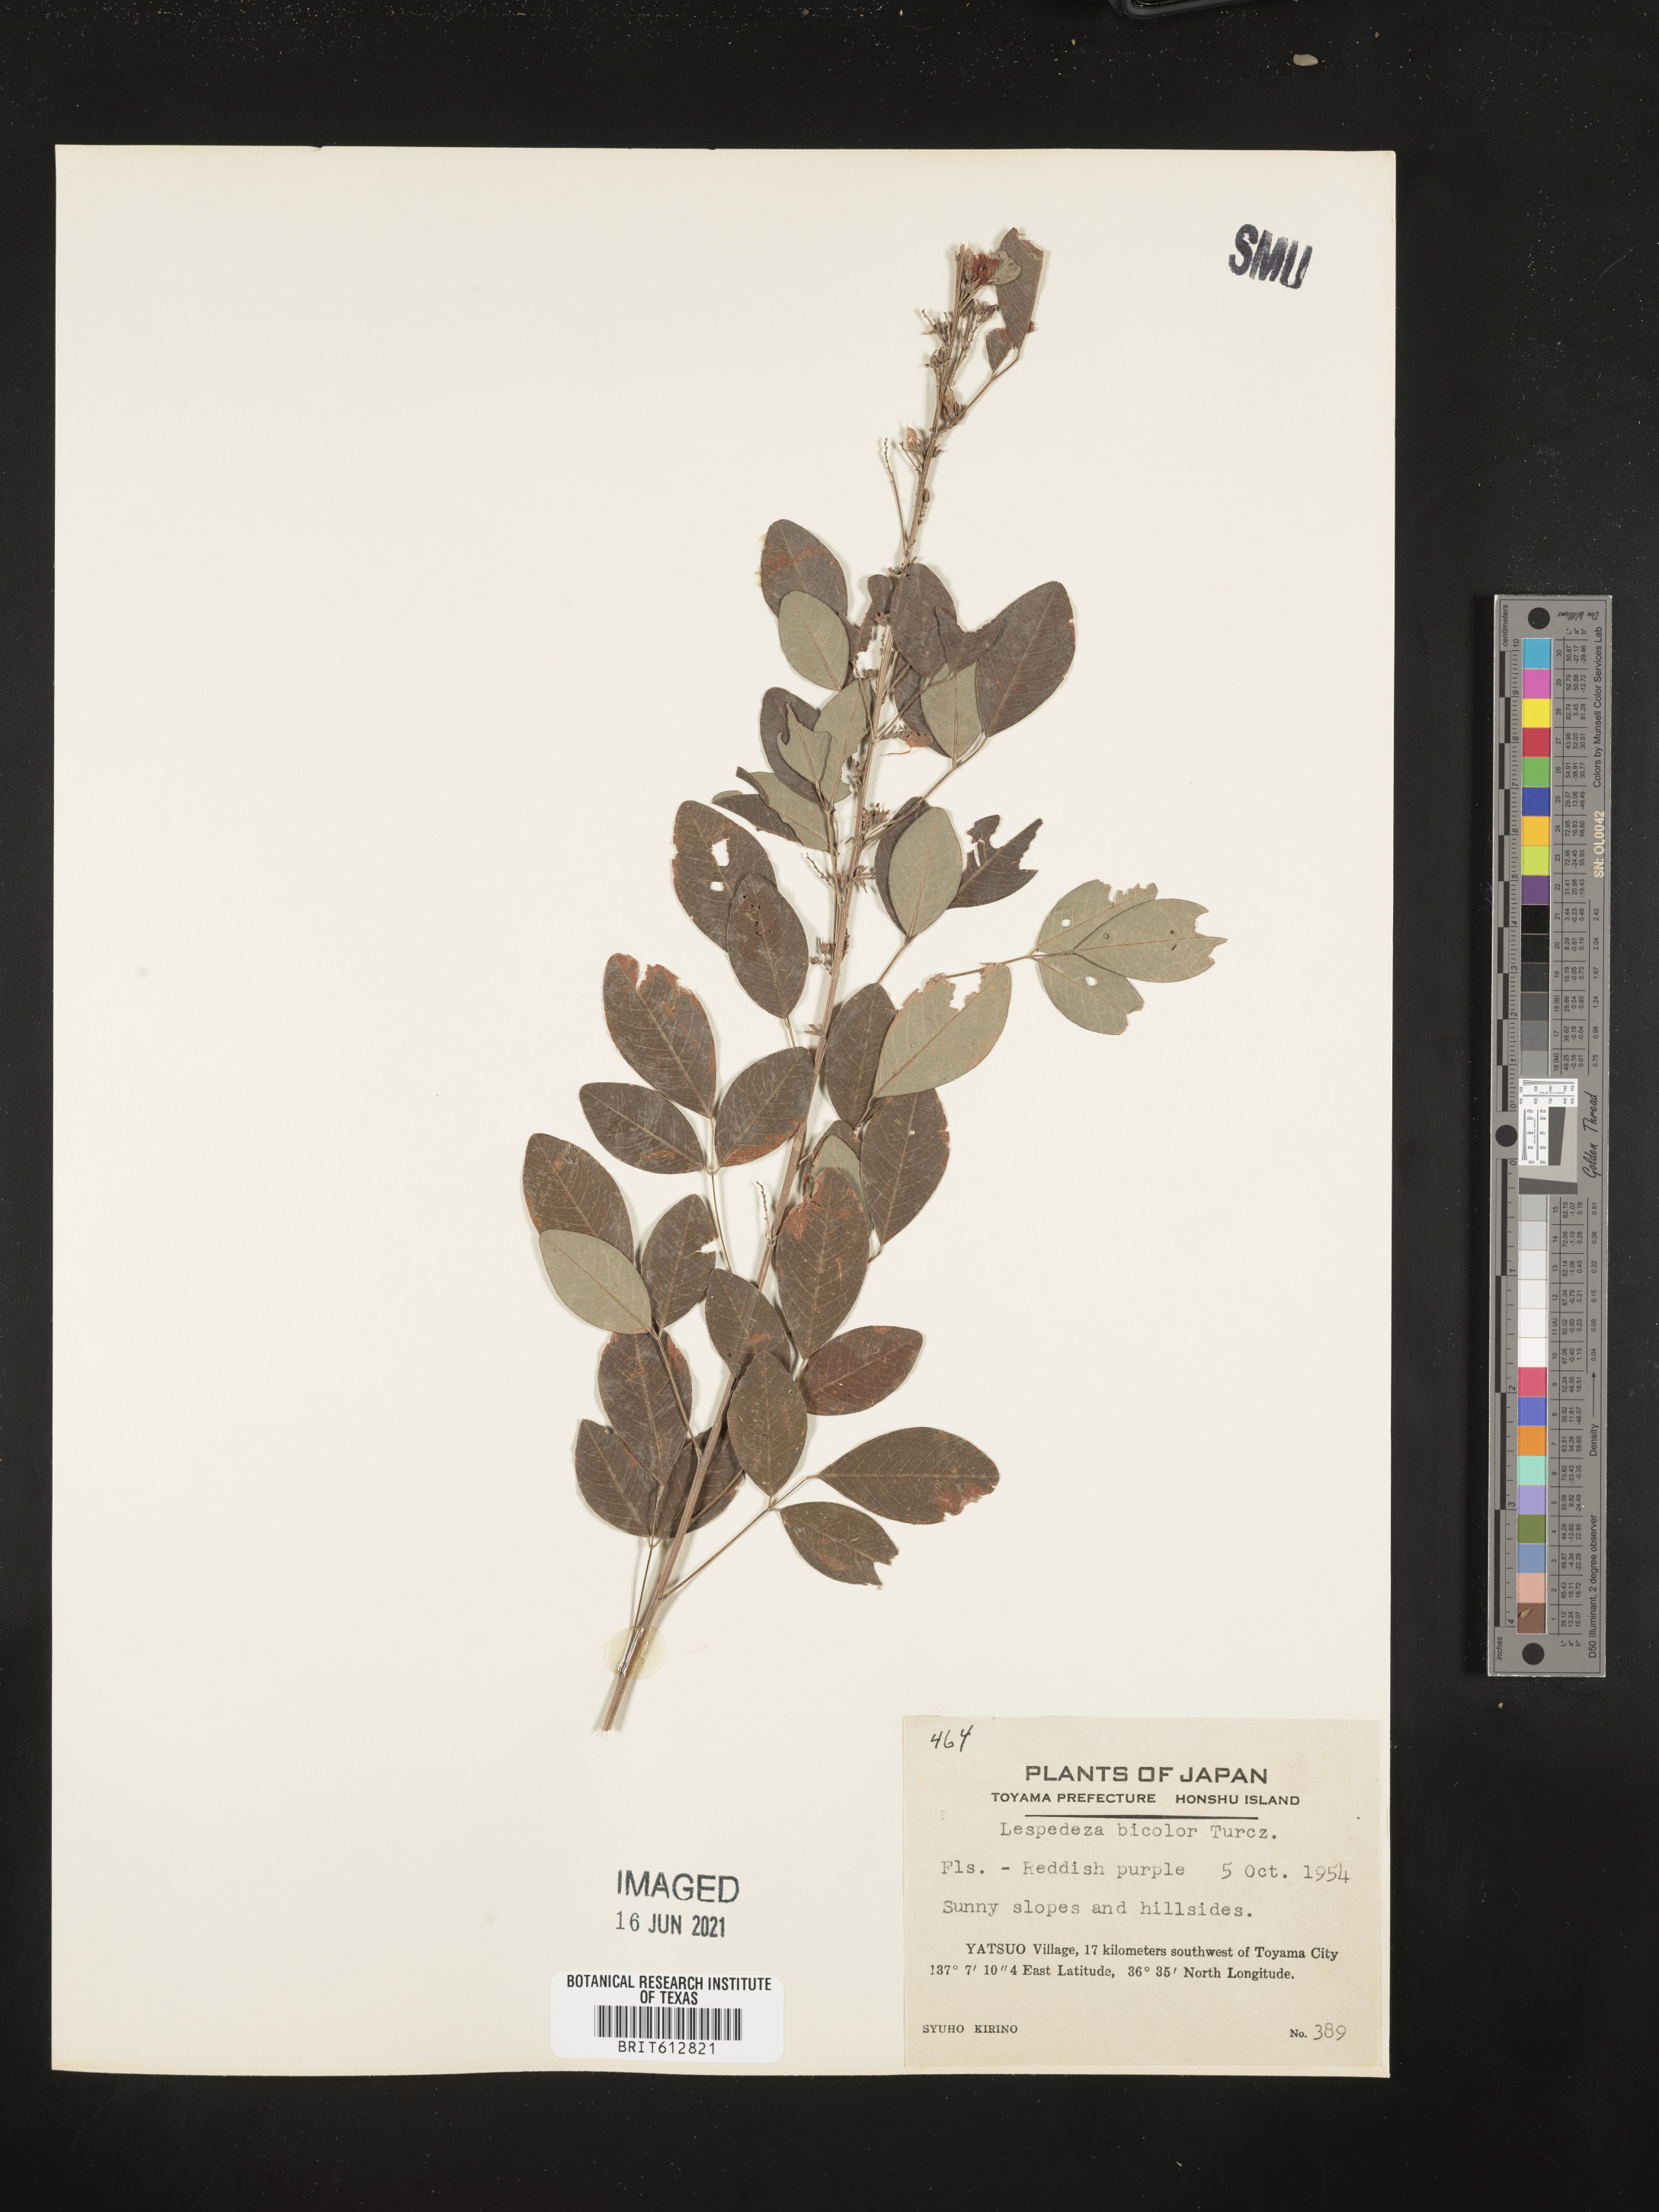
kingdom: Plantae
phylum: Tracheophyta
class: Magnoliopsida
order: Fabales
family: Fabaceae
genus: Lespedeza
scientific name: Lespedeza bicolor
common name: Shrub lespedeza
